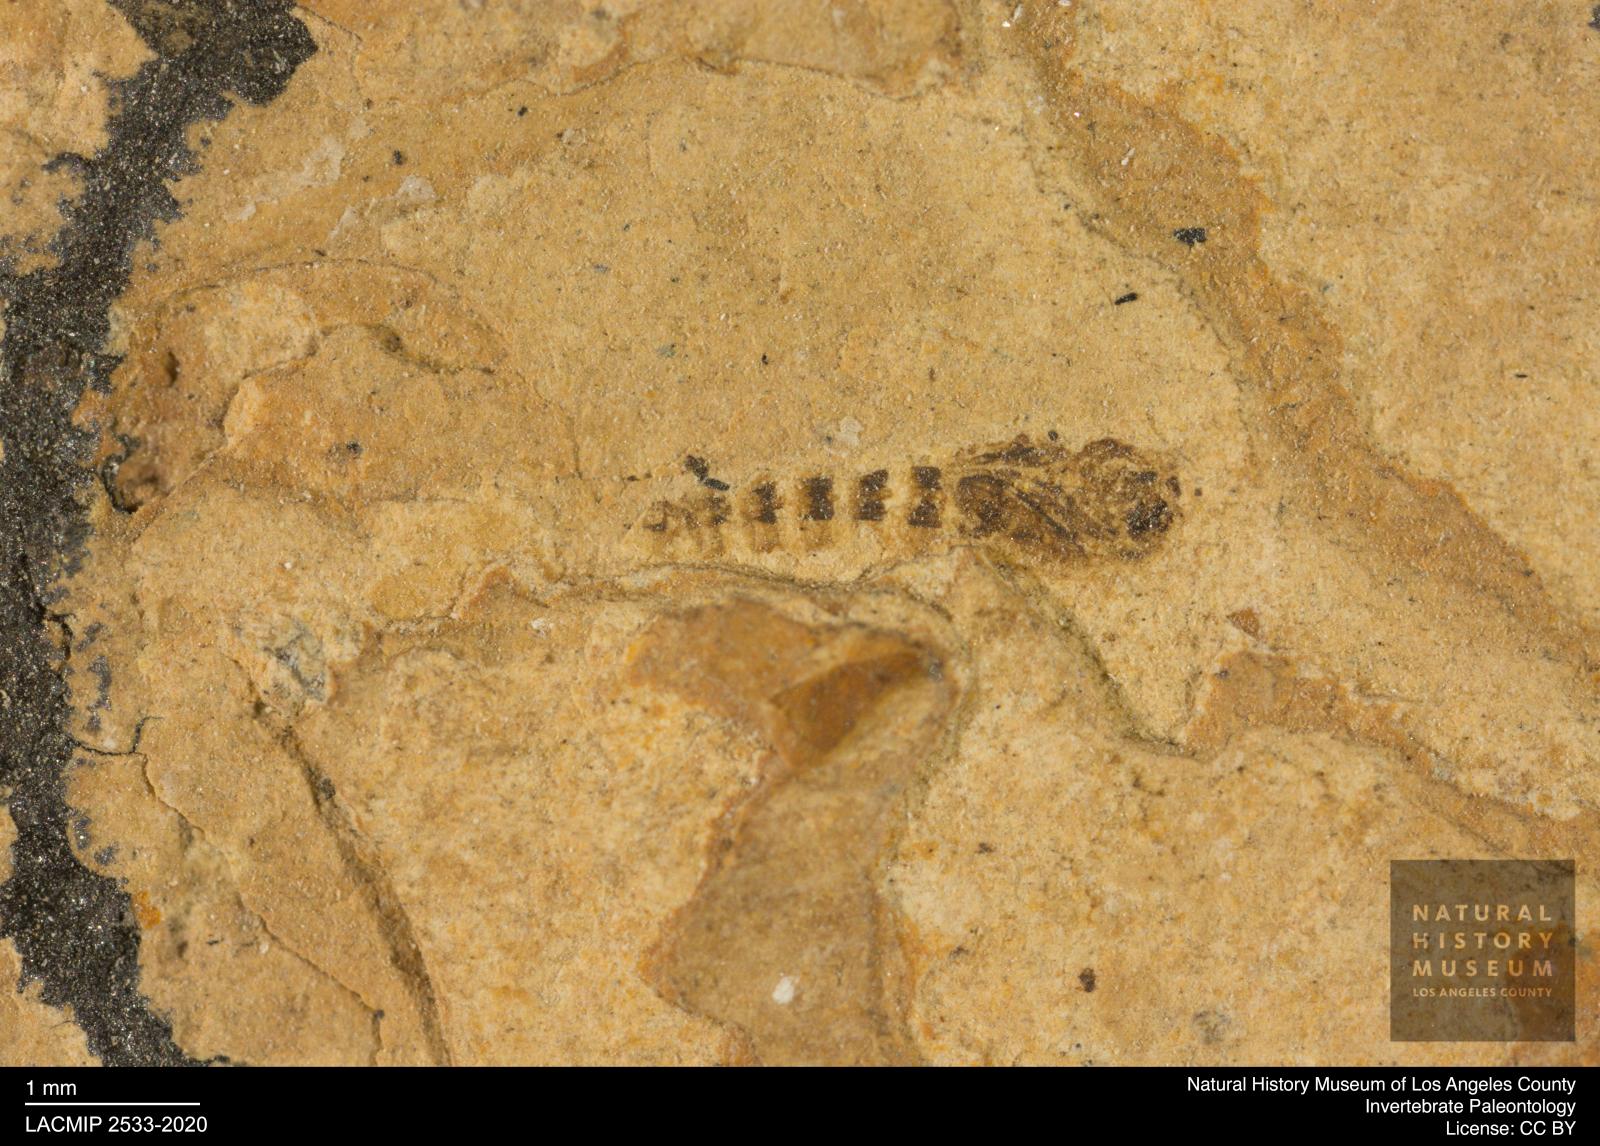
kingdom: Animalia
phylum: Arthropoda
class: Insecta
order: Diptera
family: Ceratopogonidae
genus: Ceratopogon
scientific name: Ceratopogon
